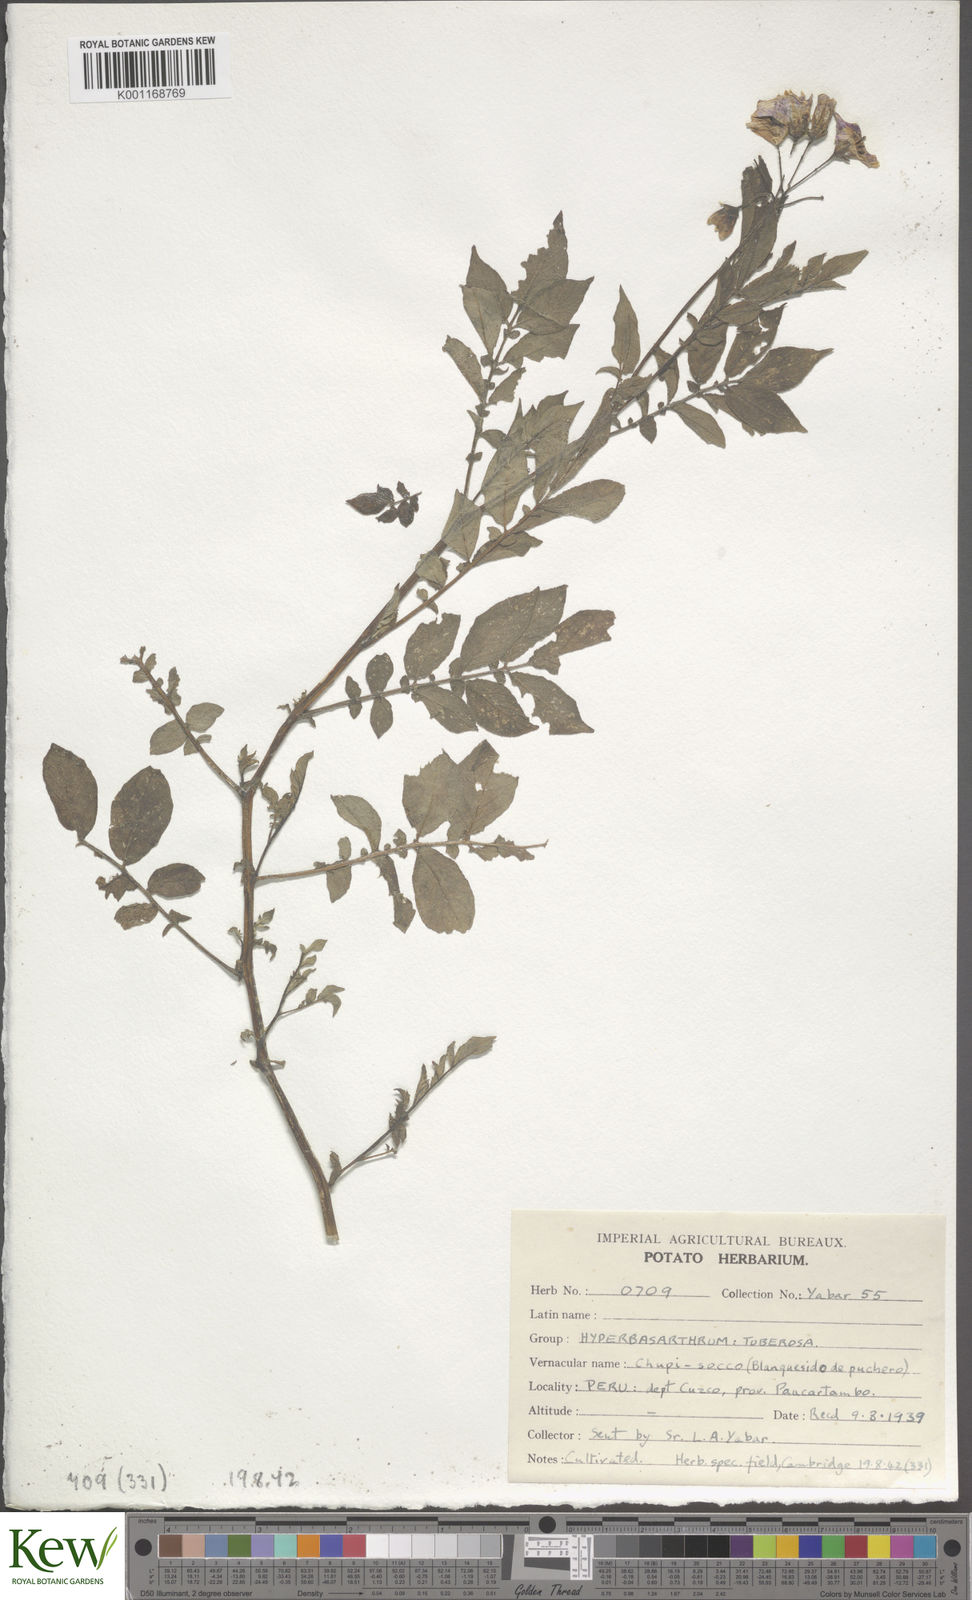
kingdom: Plantae
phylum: Tracheophyta
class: Magnoliopsida
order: Solanales
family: Solanaceae
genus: Solanum
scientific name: Solanum chaucha
